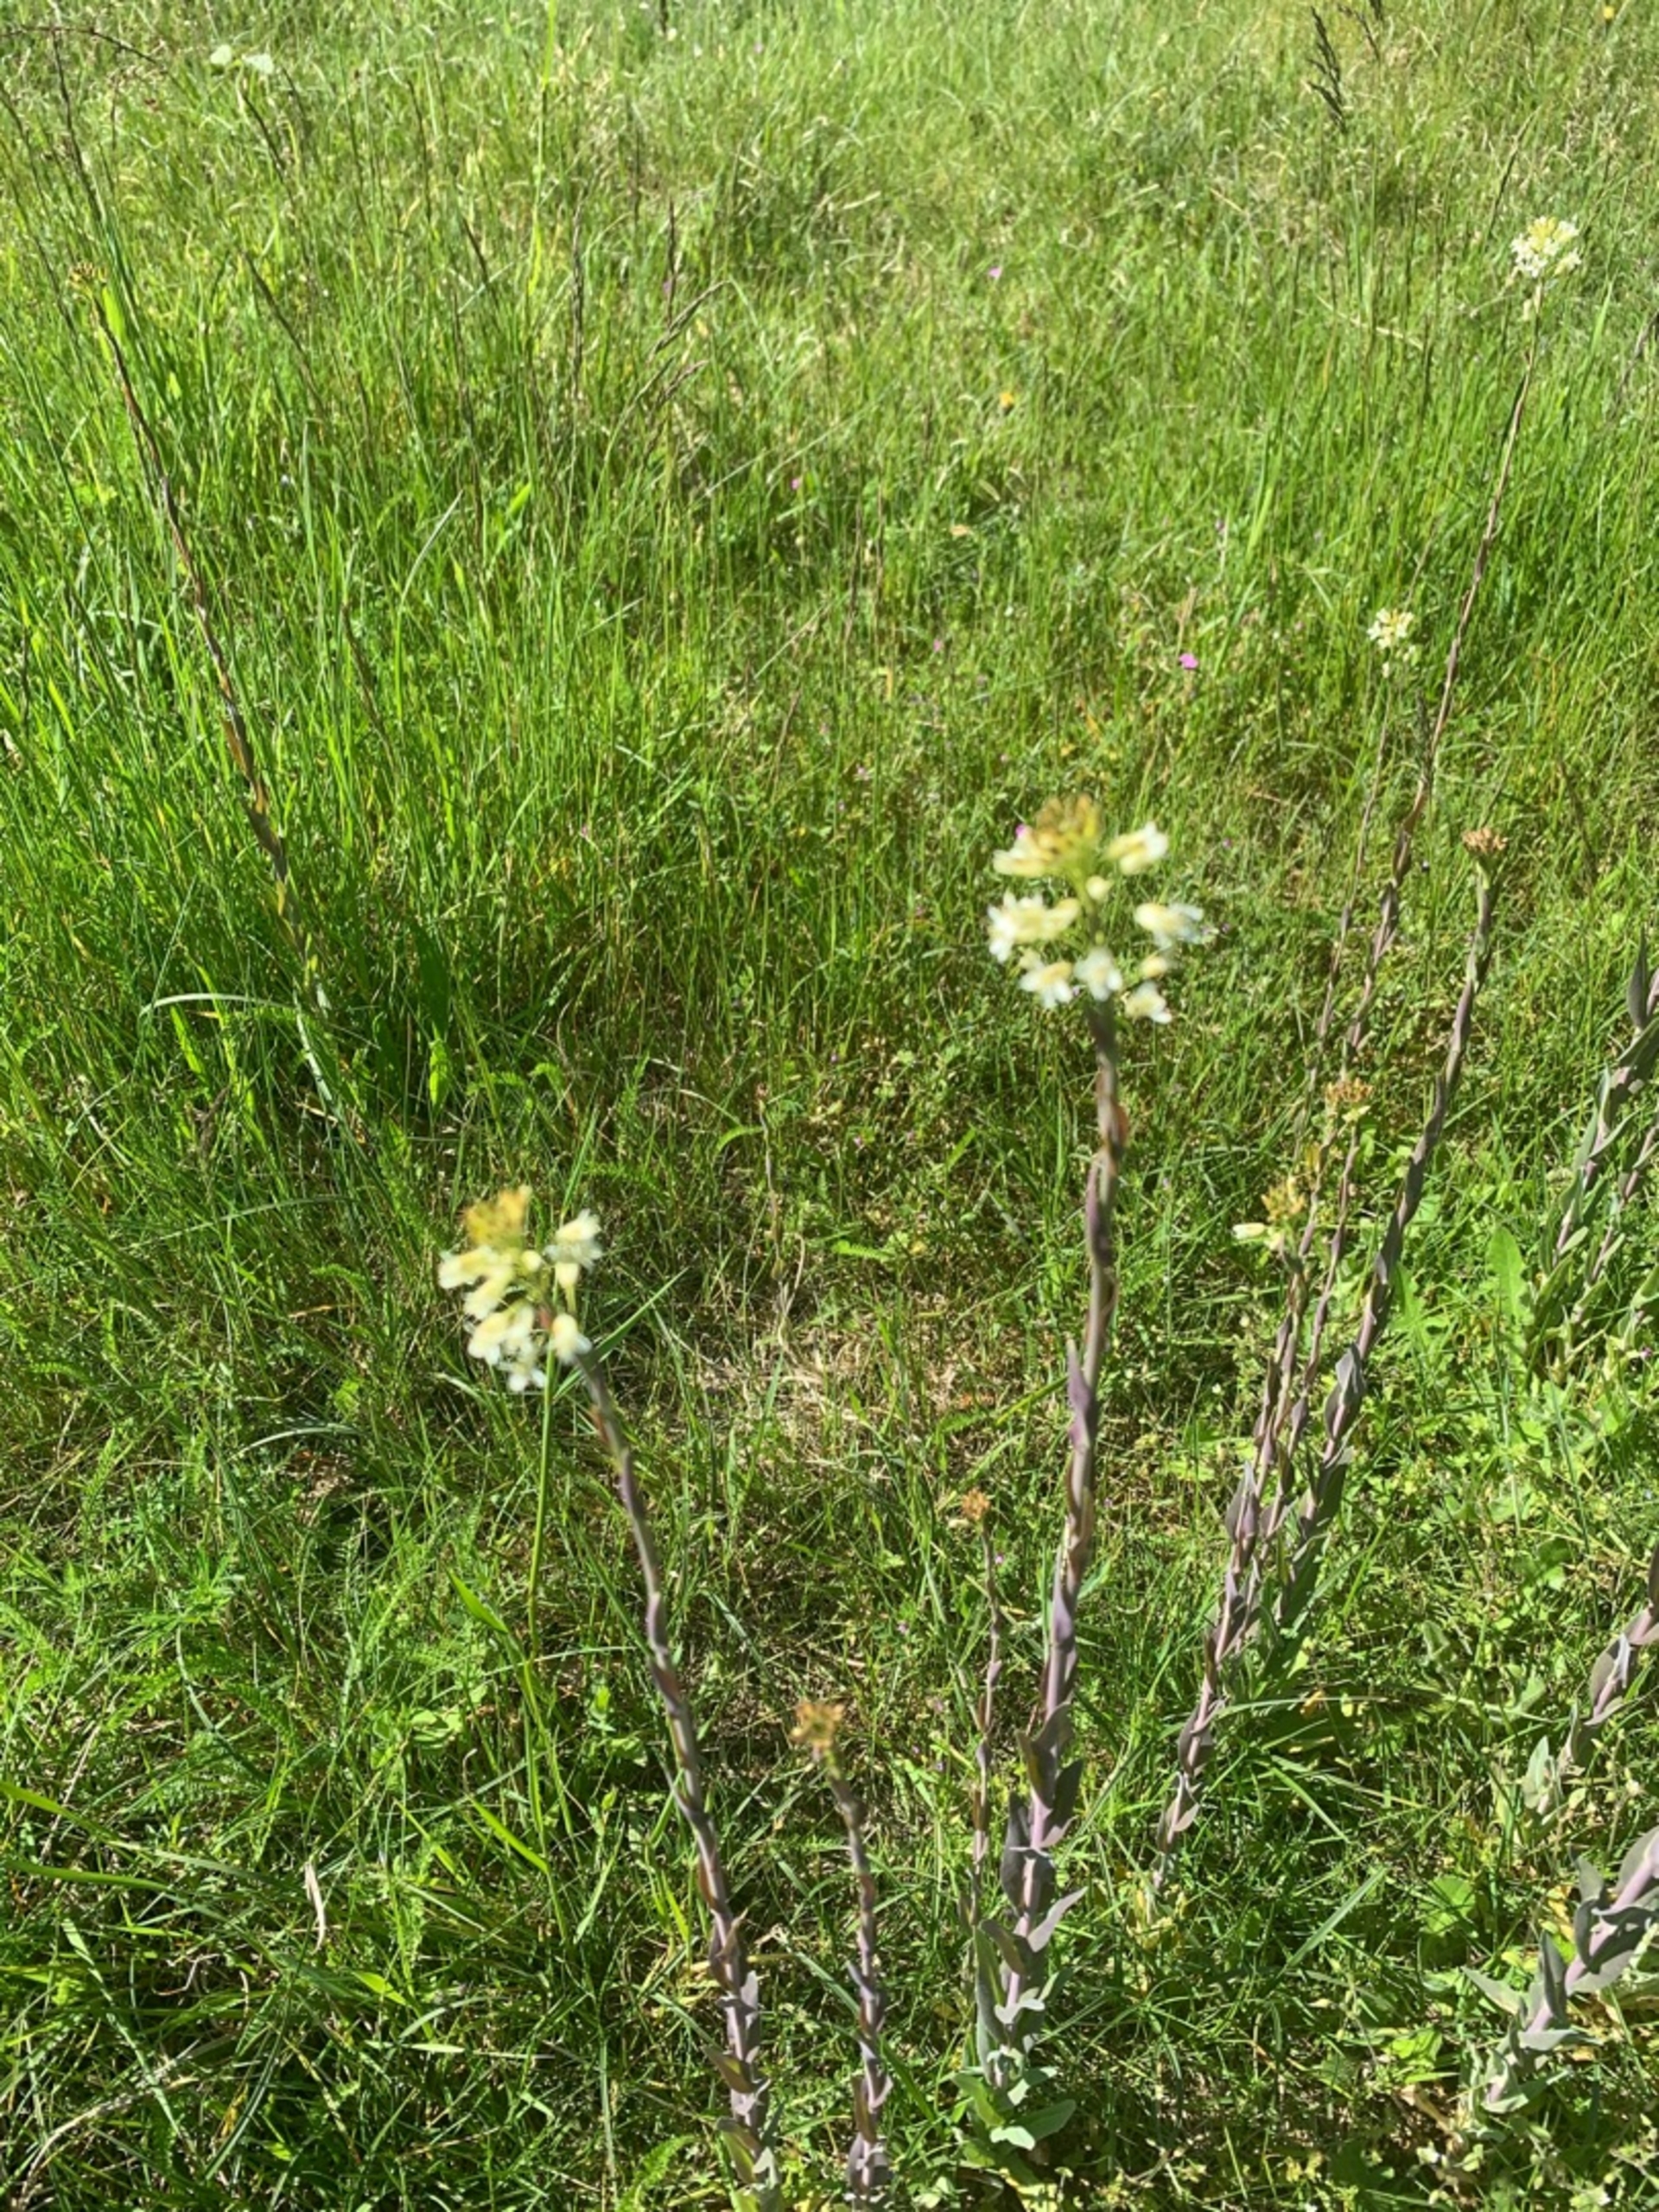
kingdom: Plantae
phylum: Tracheophyta
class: Magnoliopsida
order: Brassicales
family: Brassicaceae
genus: Turritis
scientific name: Turritis glabra
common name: Tårnurt
